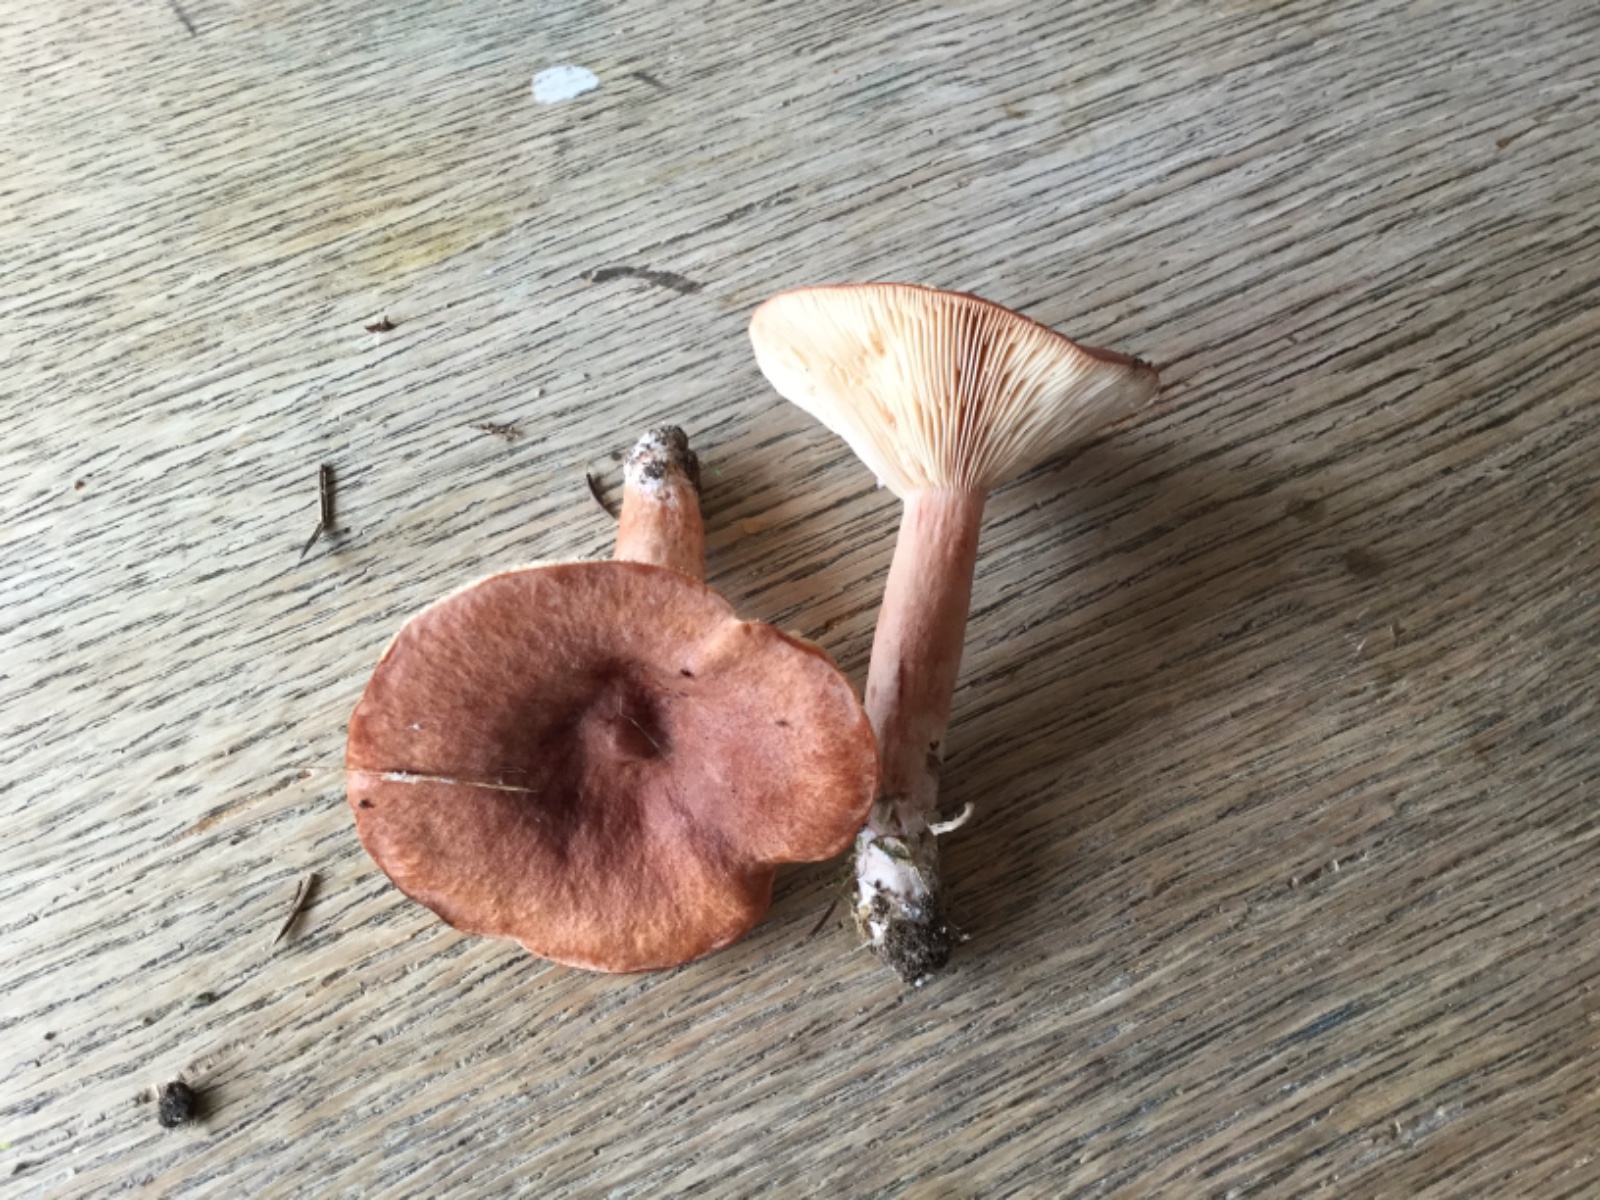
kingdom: Fungi
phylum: Basidiomycota
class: Agaricomycetes
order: Russulales
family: Russulaceae
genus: Lactarius
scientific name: Lactarius rufus
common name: rødbrun mælkehat
